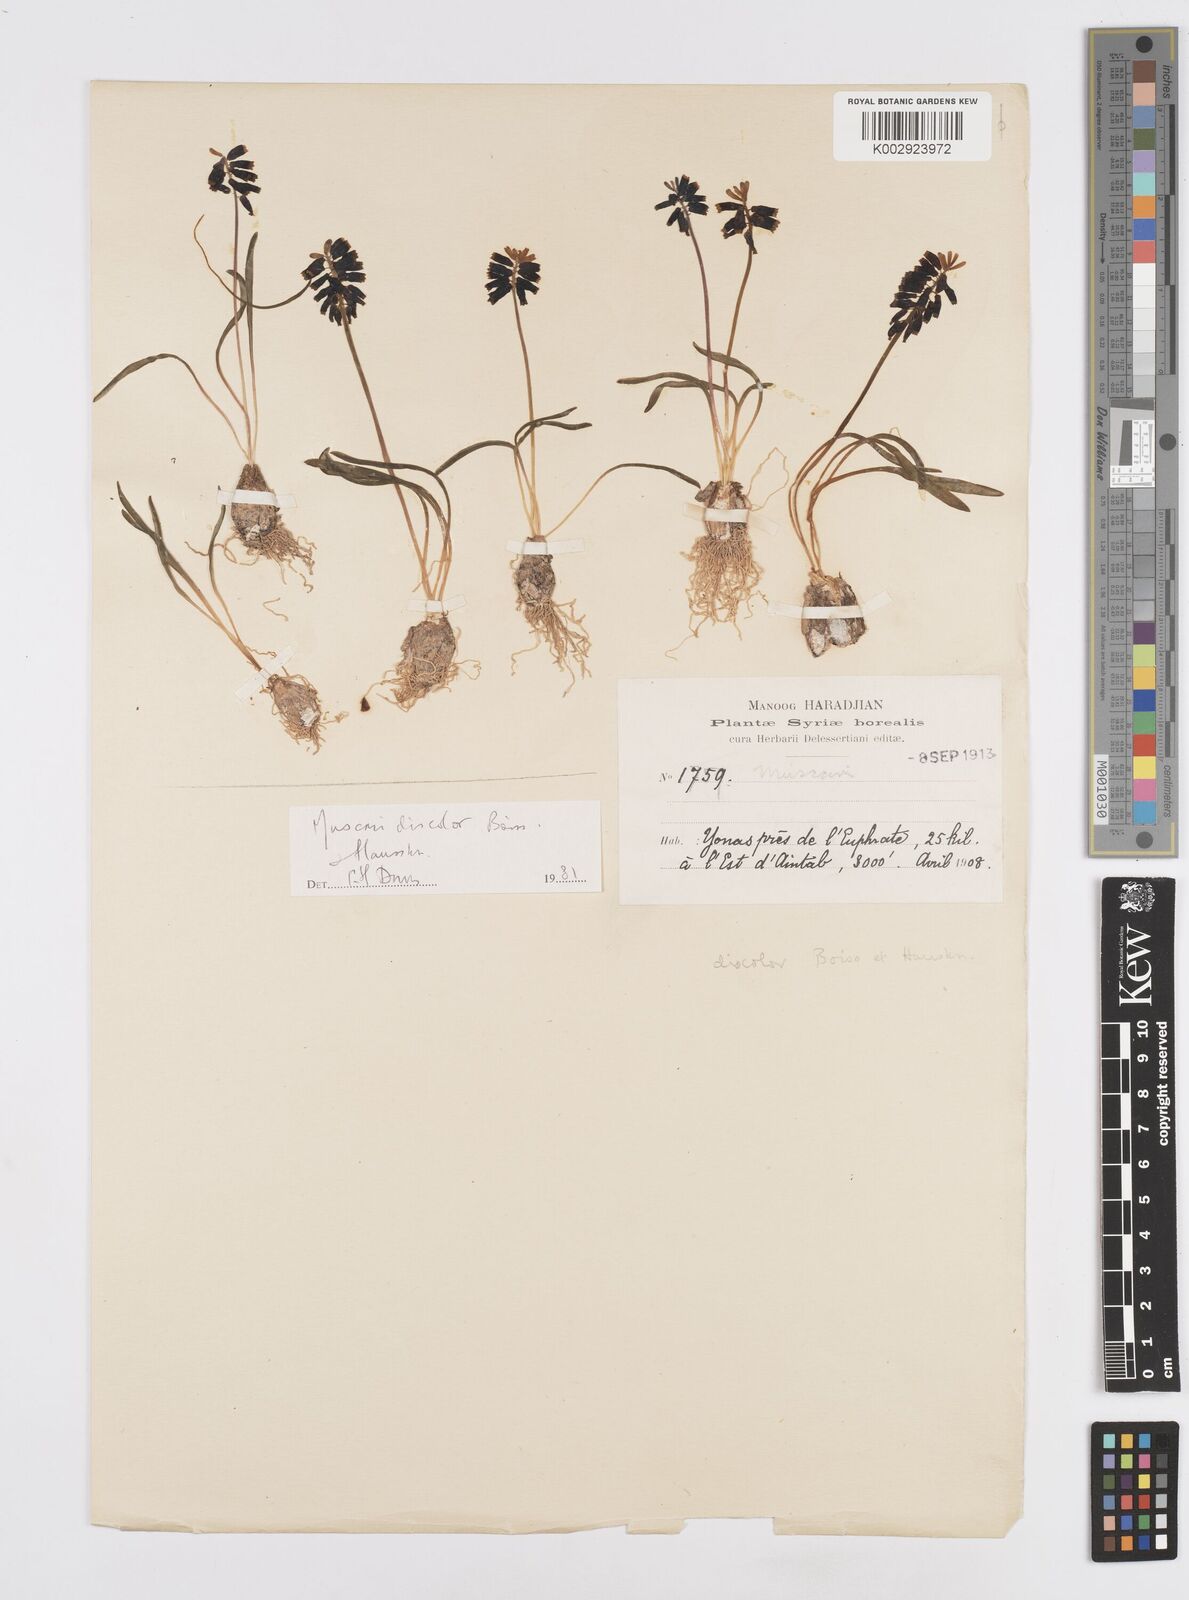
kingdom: Plantae
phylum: Tracheophyta
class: Liliopsida
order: Asparagales
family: Asparagaceae
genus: Muscari
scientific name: Muscari discolor
